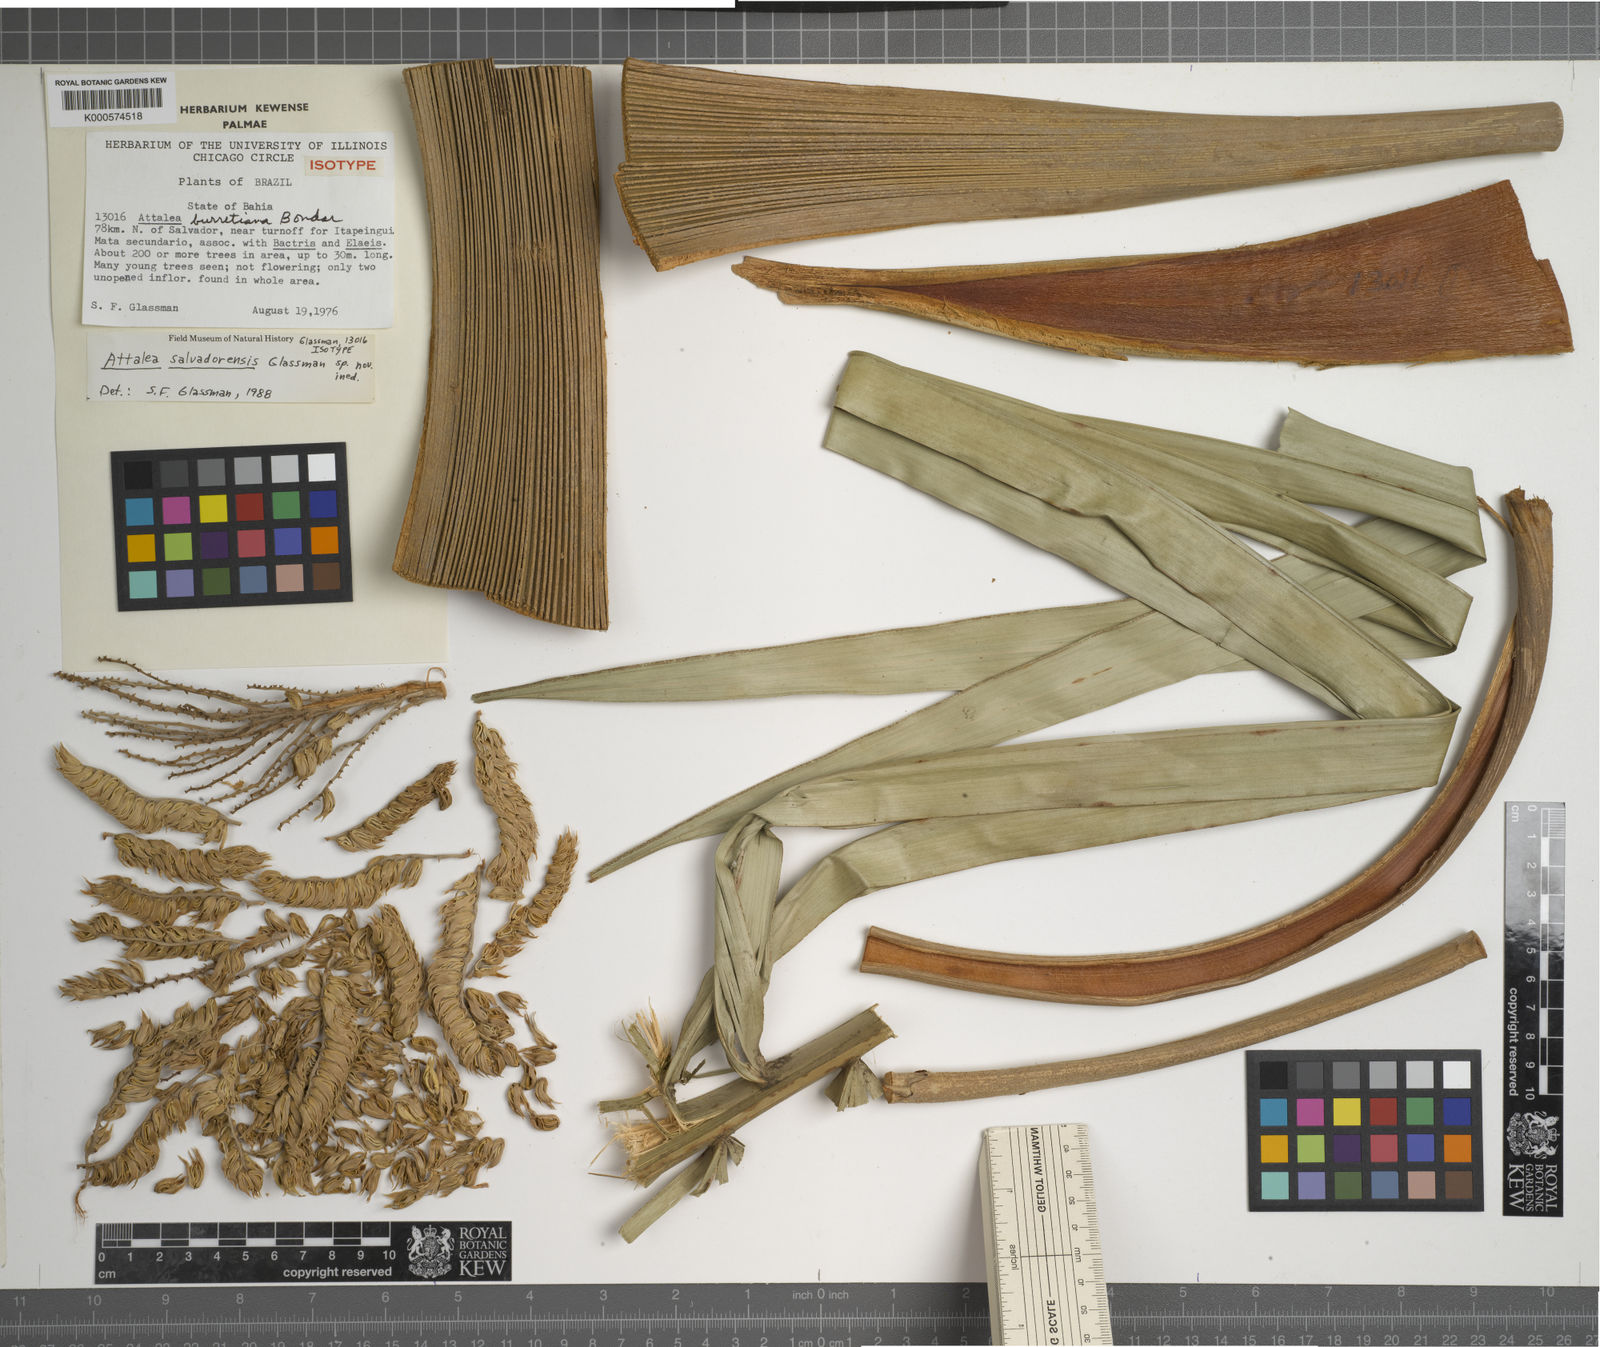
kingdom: Plantae
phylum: Tracheophyta
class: Liliopsida
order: Arecales
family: Arecaceae
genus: Attalea
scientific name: Attalea salvadorensis
